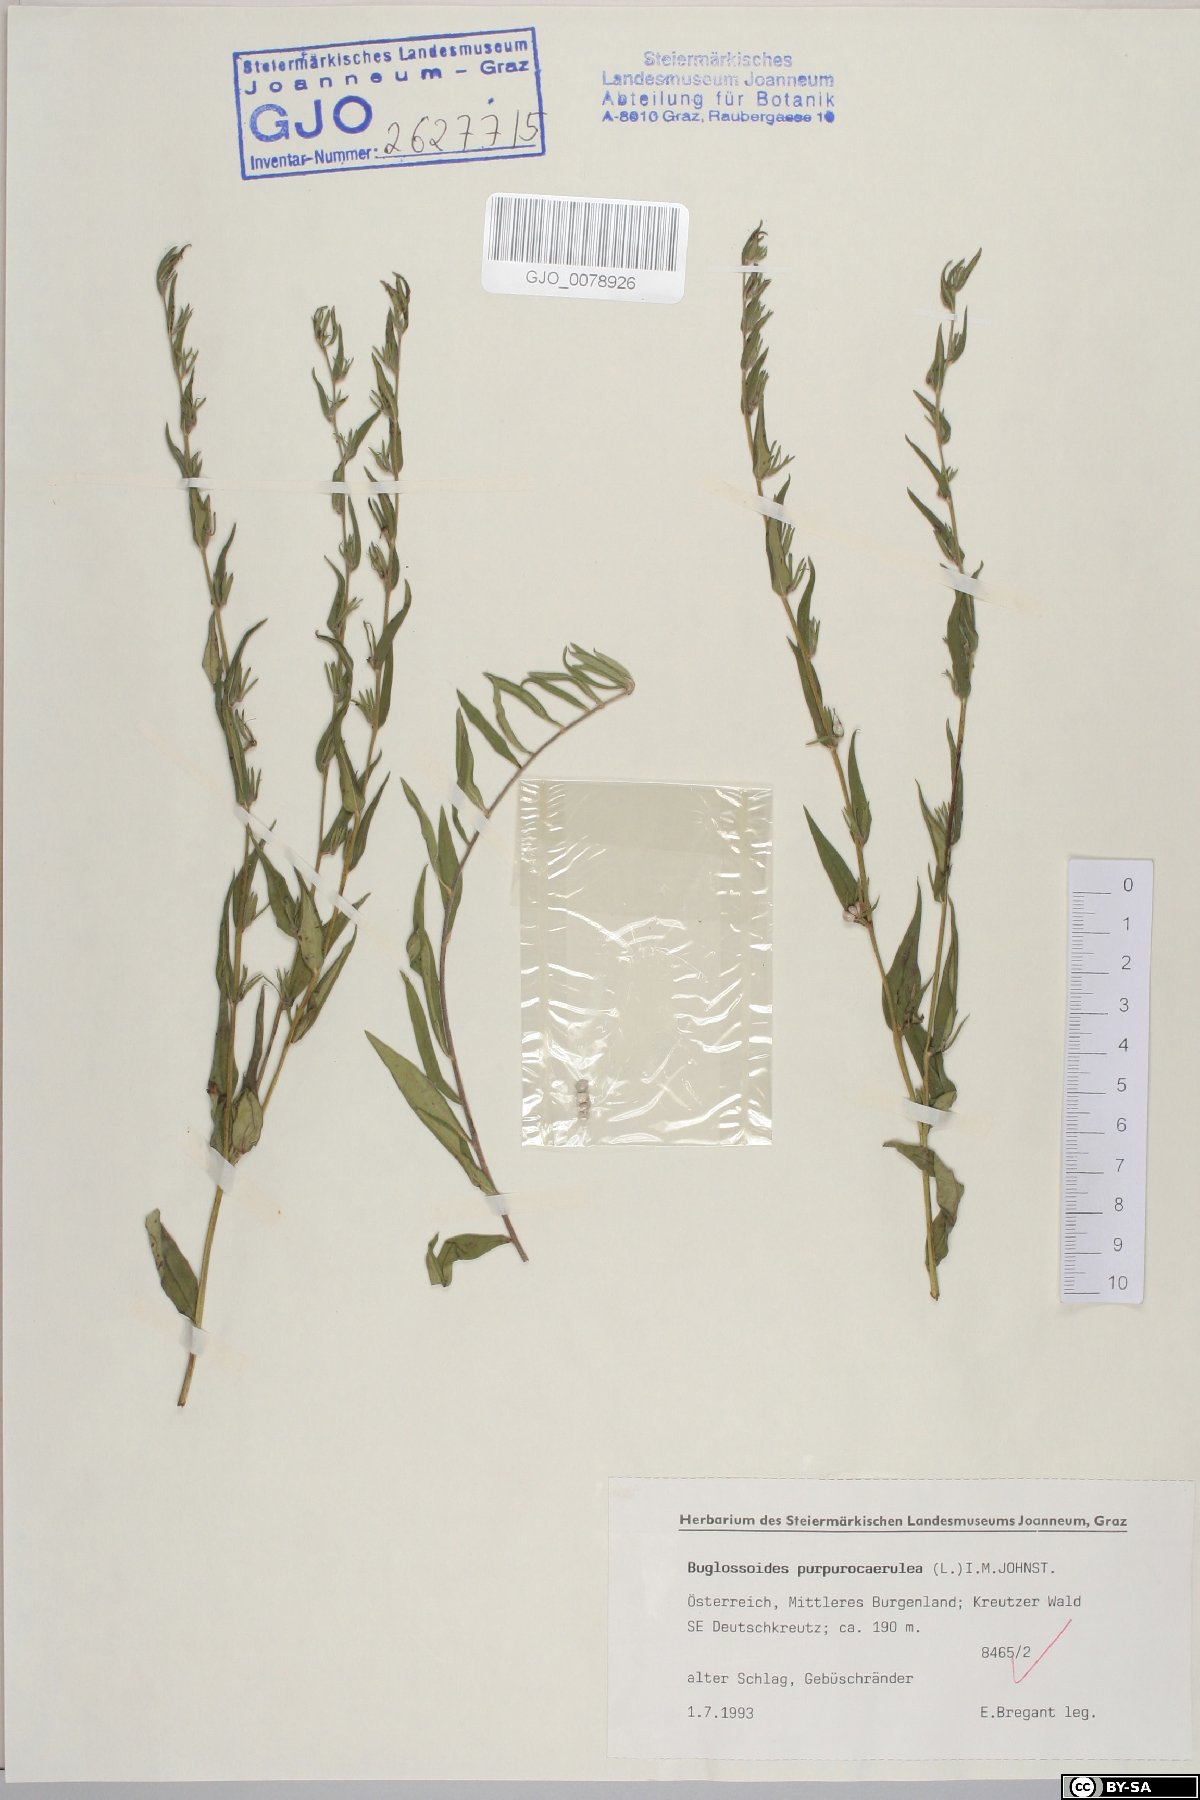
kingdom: Plantae
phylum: Tracheophyta
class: Magnoliopsida
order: Boraginales
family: Boraginaceae
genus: Aegonychon
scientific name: Aegonychon purpurocaeruleum
